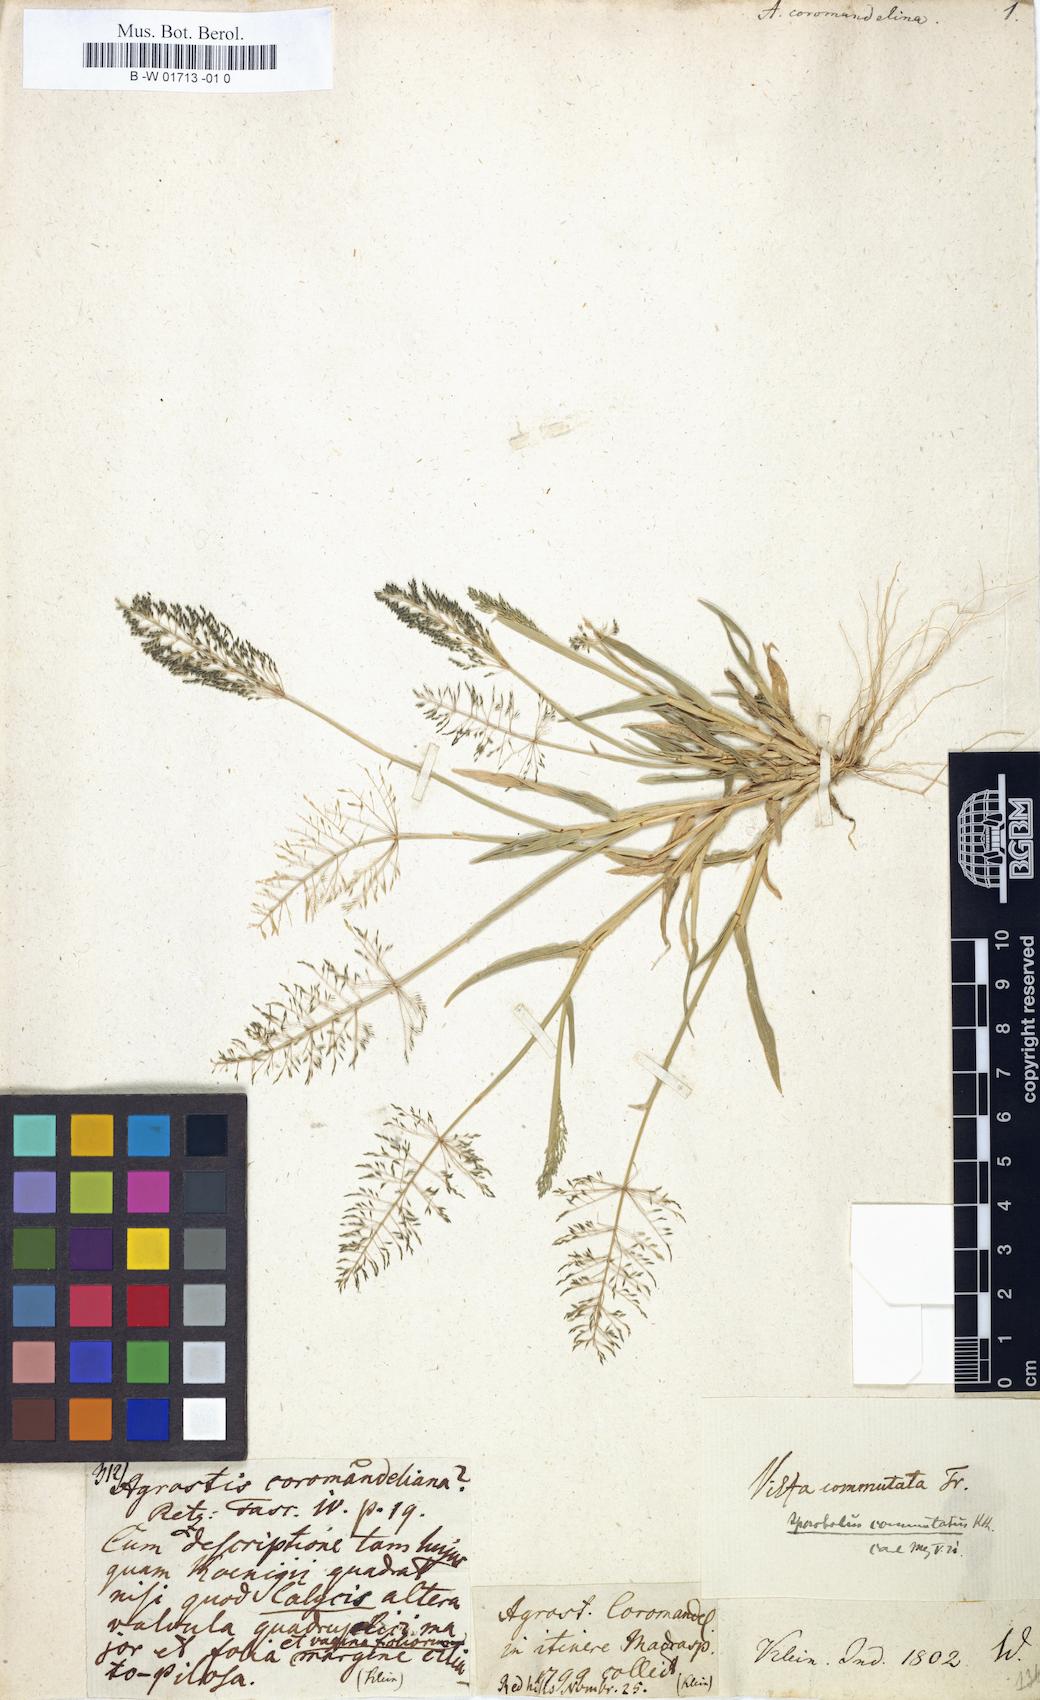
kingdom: Plantae
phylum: Tracheophyta
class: Liliopsida
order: Poales
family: Poaceae
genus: Sporobolus
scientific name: Sporobolus coromandelianus
